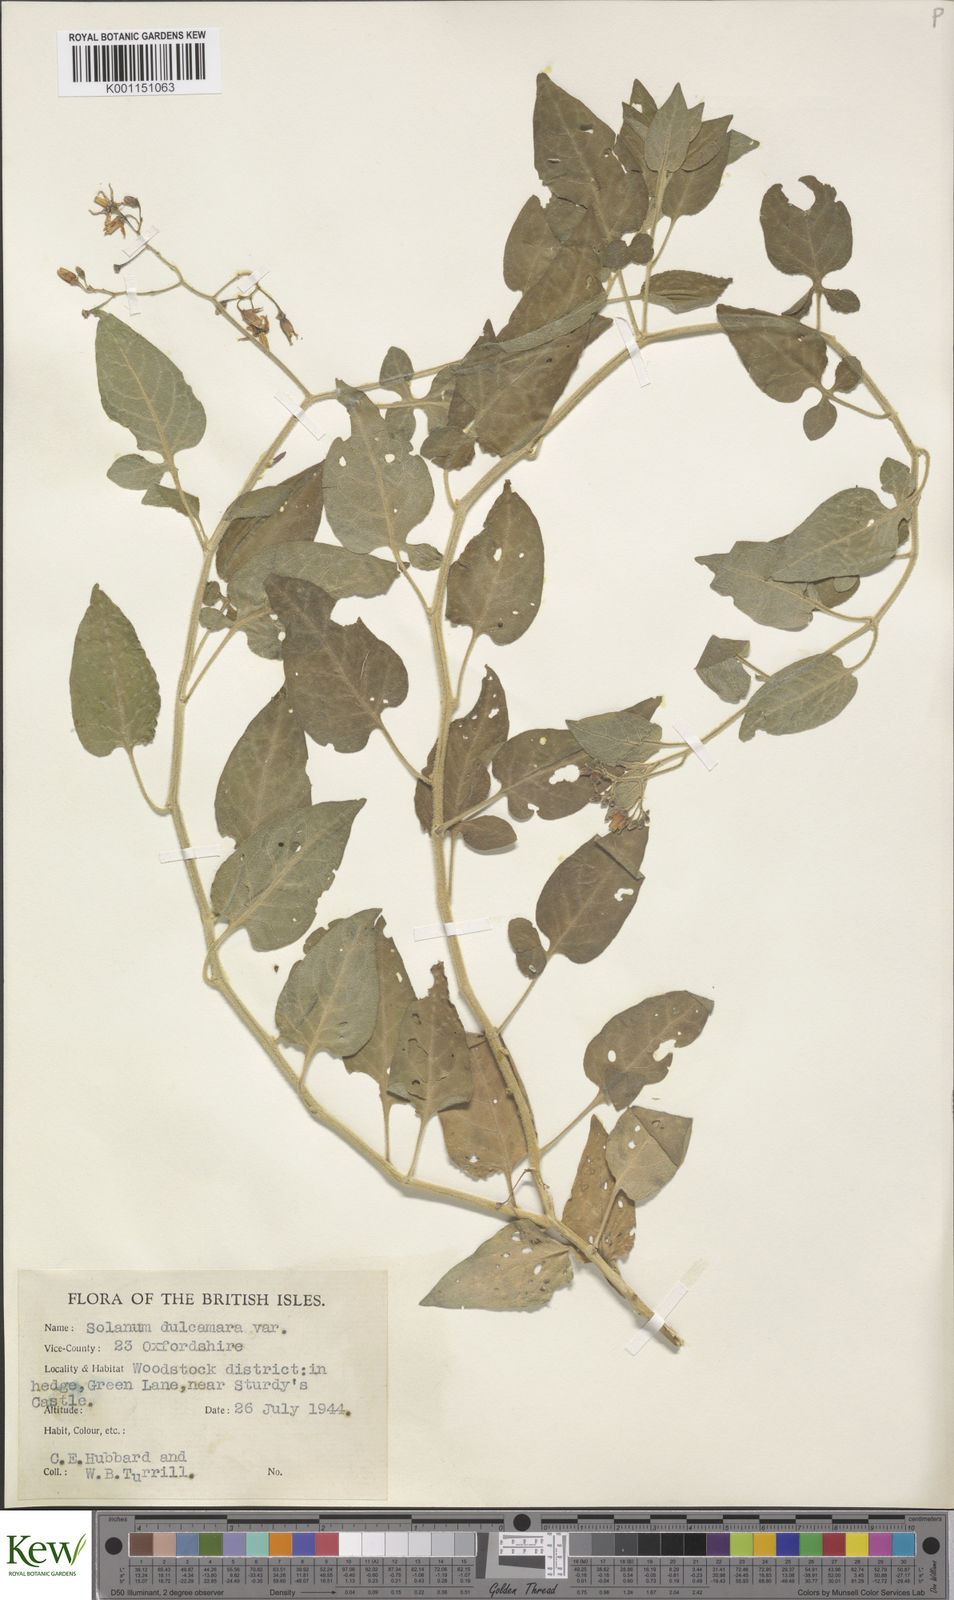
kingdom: Plantae
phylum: Tracheophyta
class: Magnoliopsida
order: Solanales
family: Solanaceae
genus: Solanum
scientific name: Solanum dulcamara
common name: Climbing nightshade
